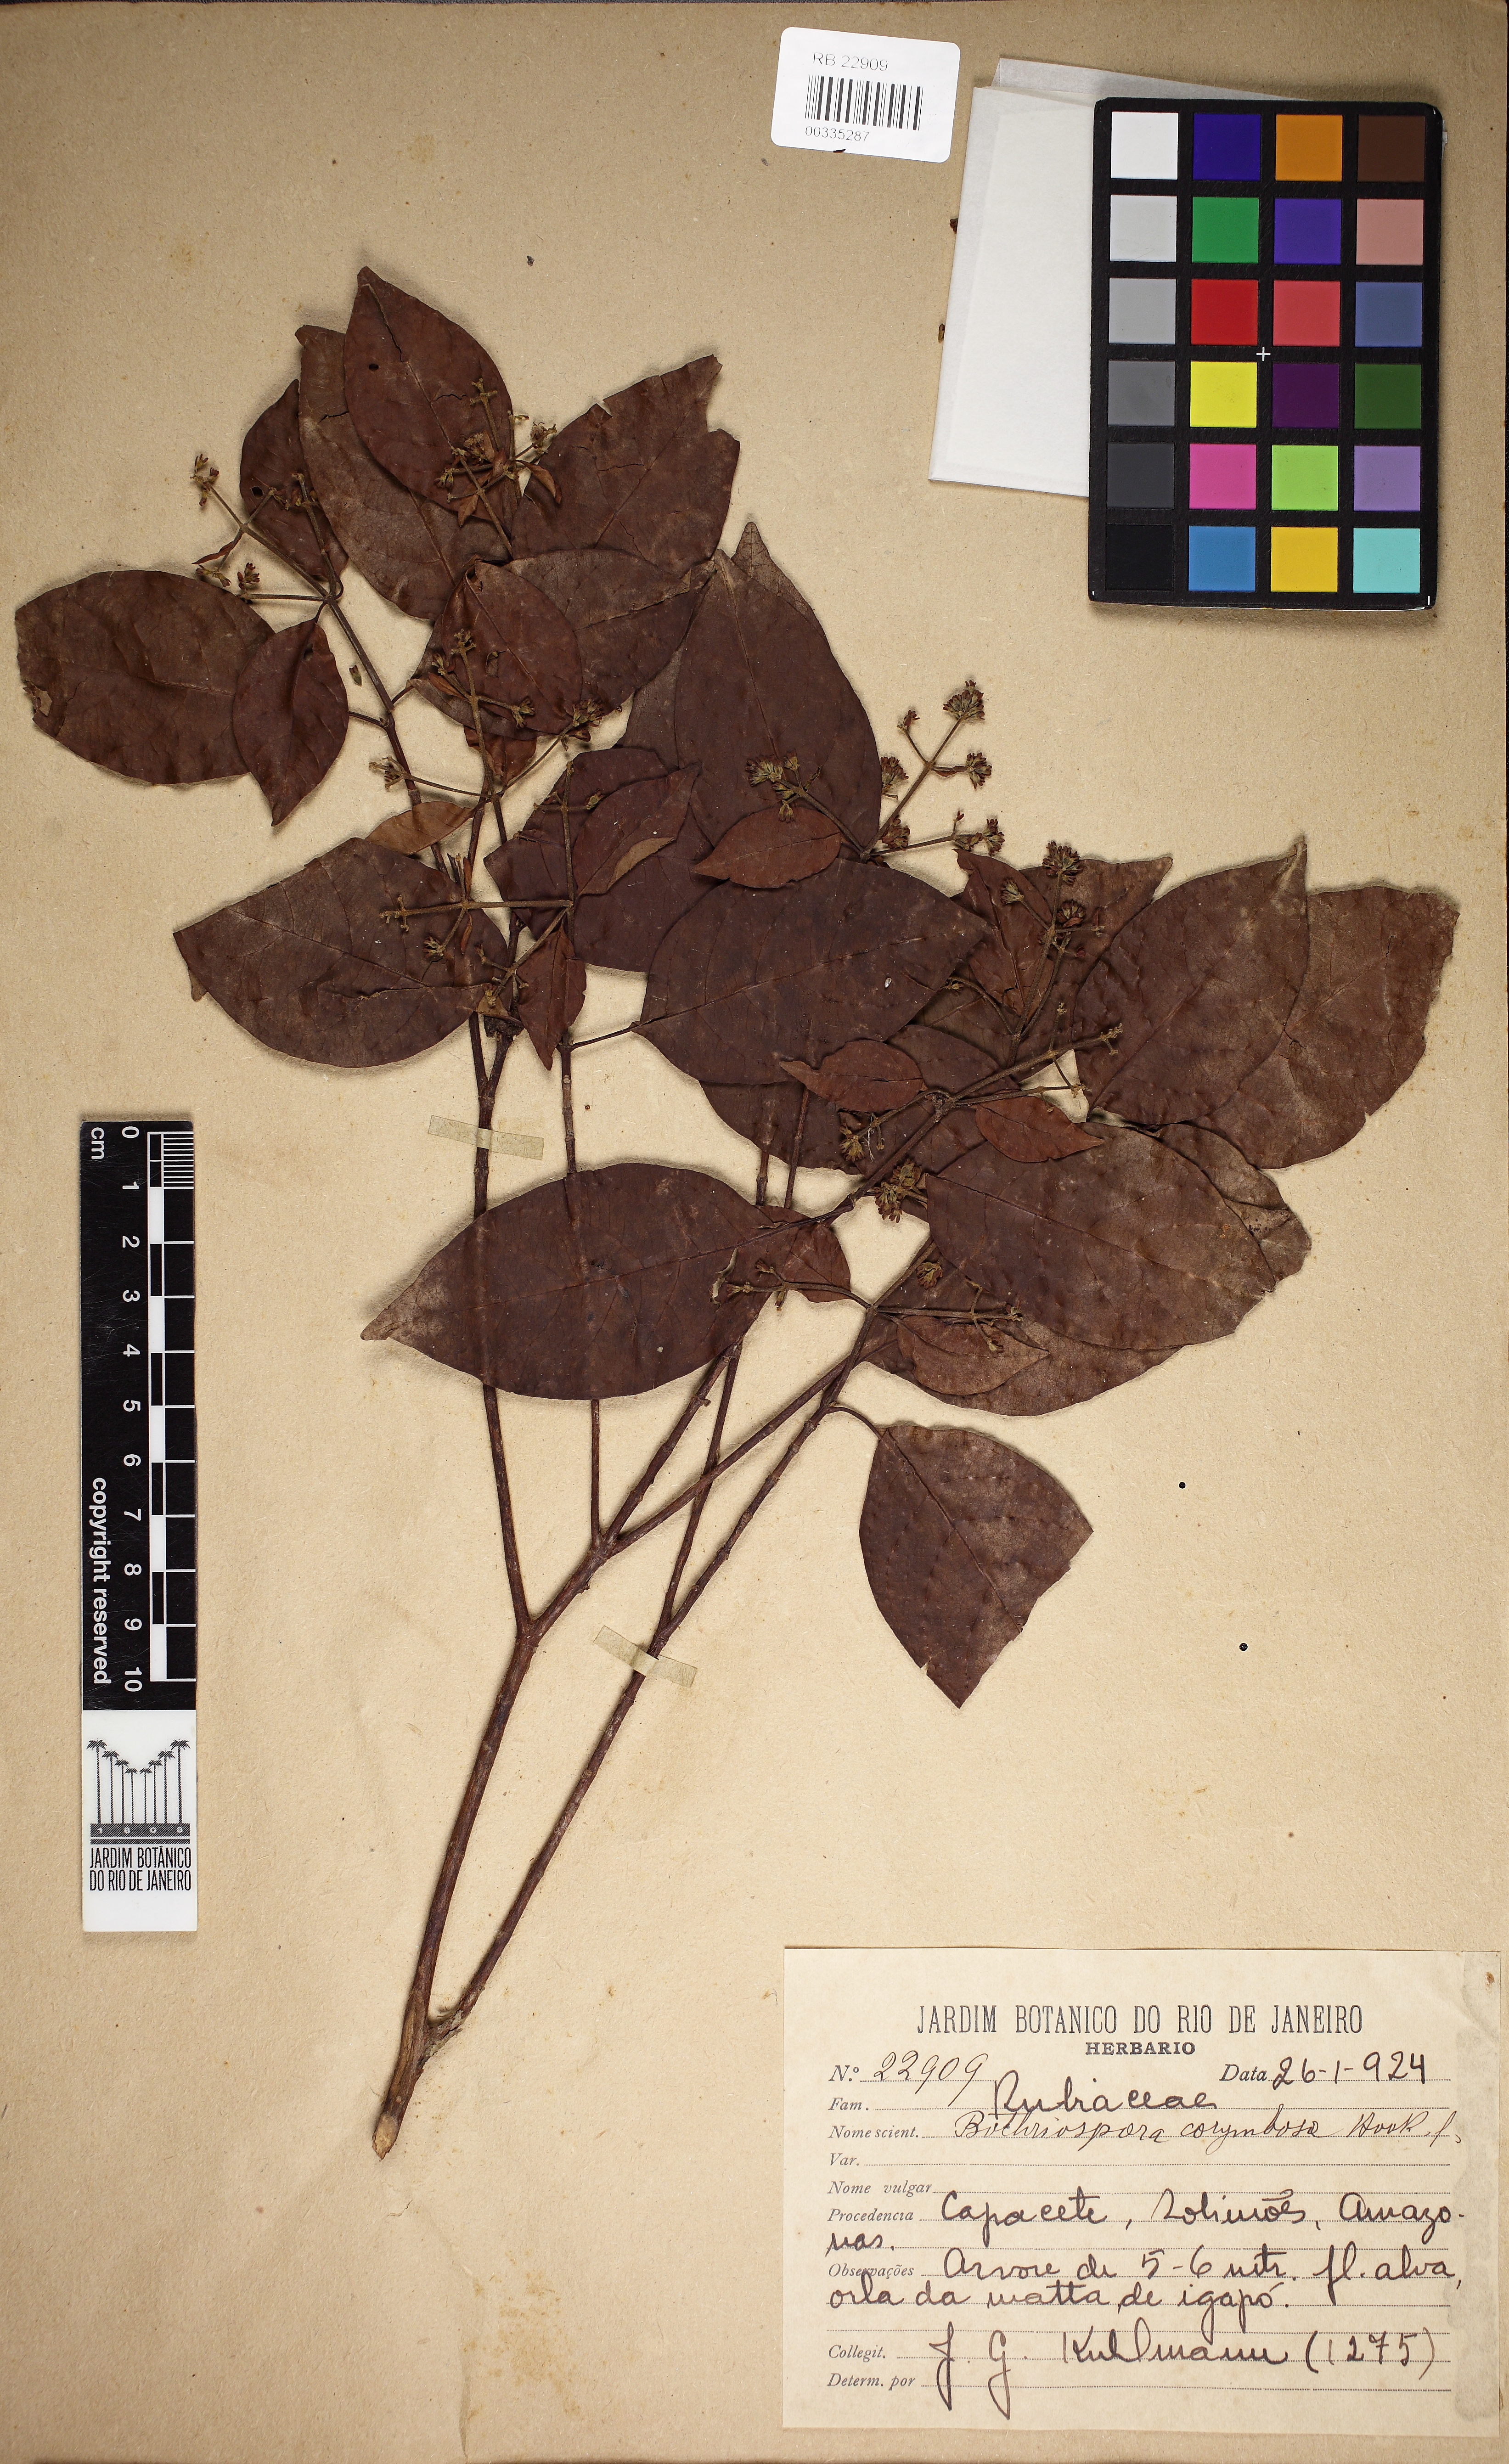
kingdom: Plantae
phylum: Tracheophyta
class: Magnoliopsida
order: Gentianales
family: Rubiaceae
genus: Bothriospora
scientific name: Bothriospora corymbosa
